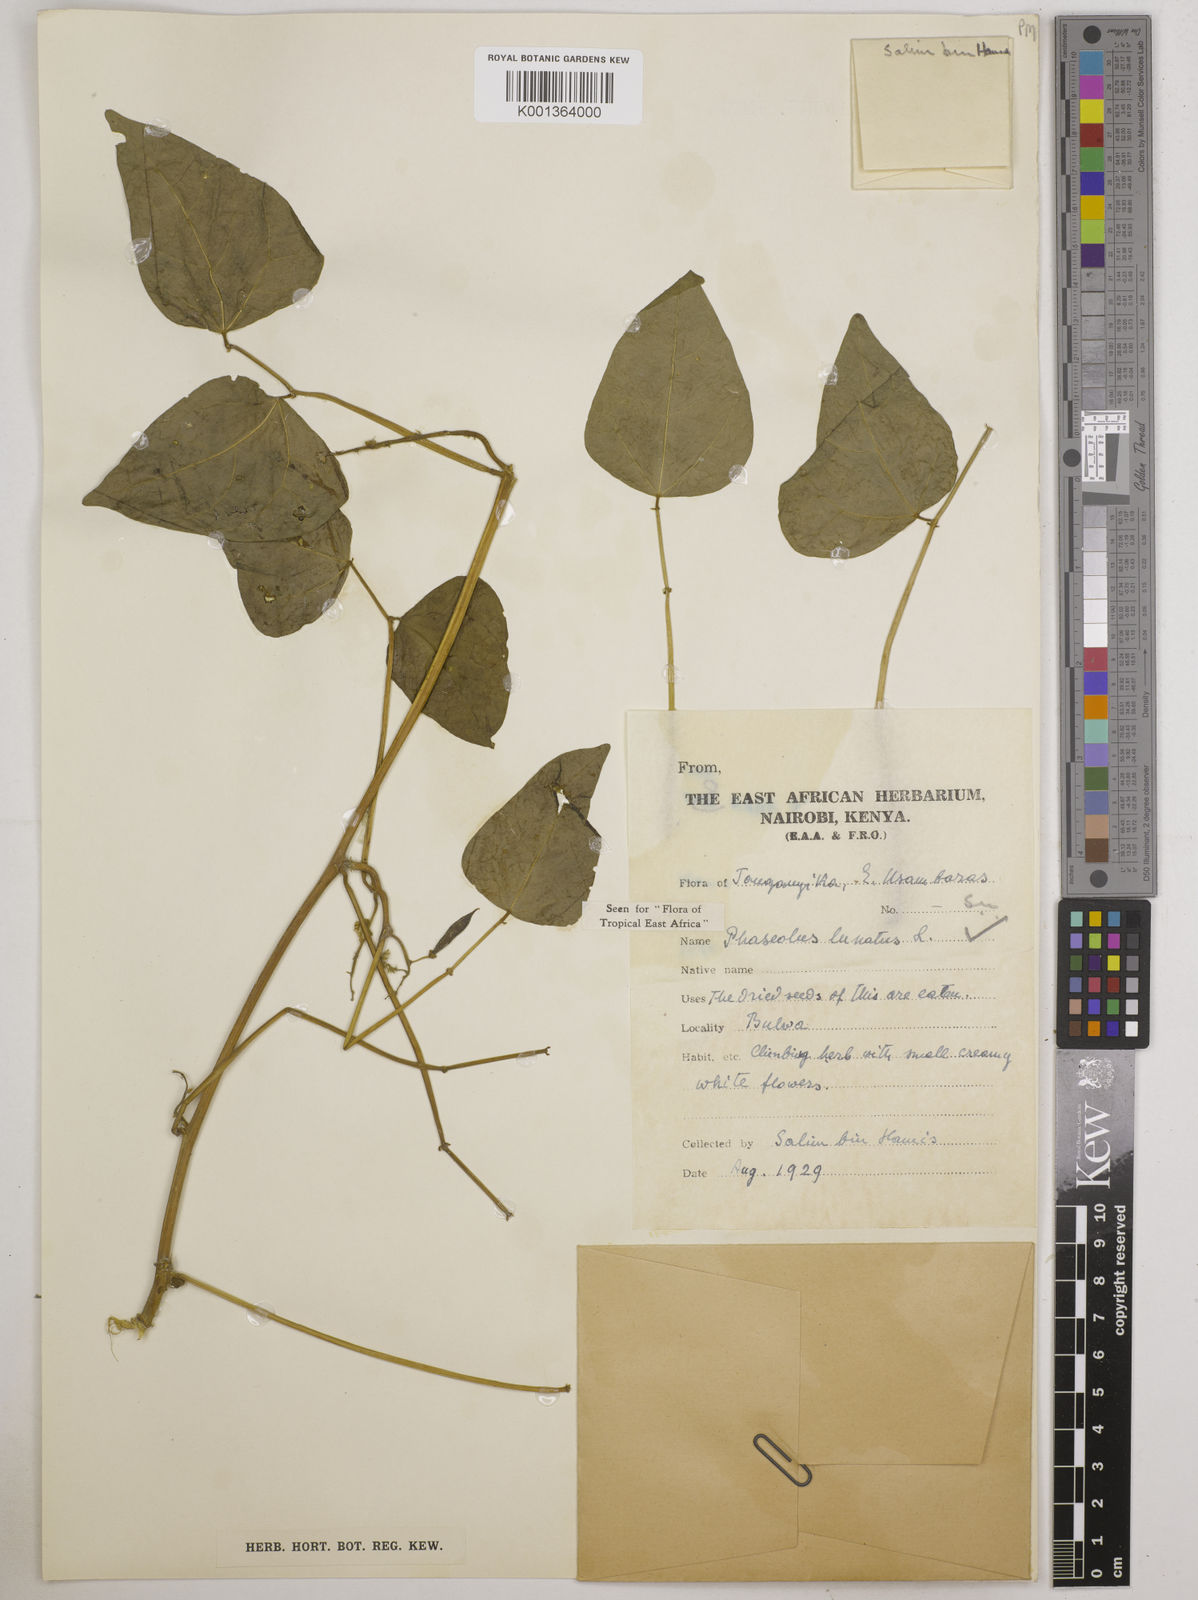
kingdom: Plantae
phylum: Tracheophyta
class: Magnoliopsida
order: Fabales
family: Fabaceae
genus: Phaseolus
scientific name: Phaseolus lunatus
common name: Sieva bean
